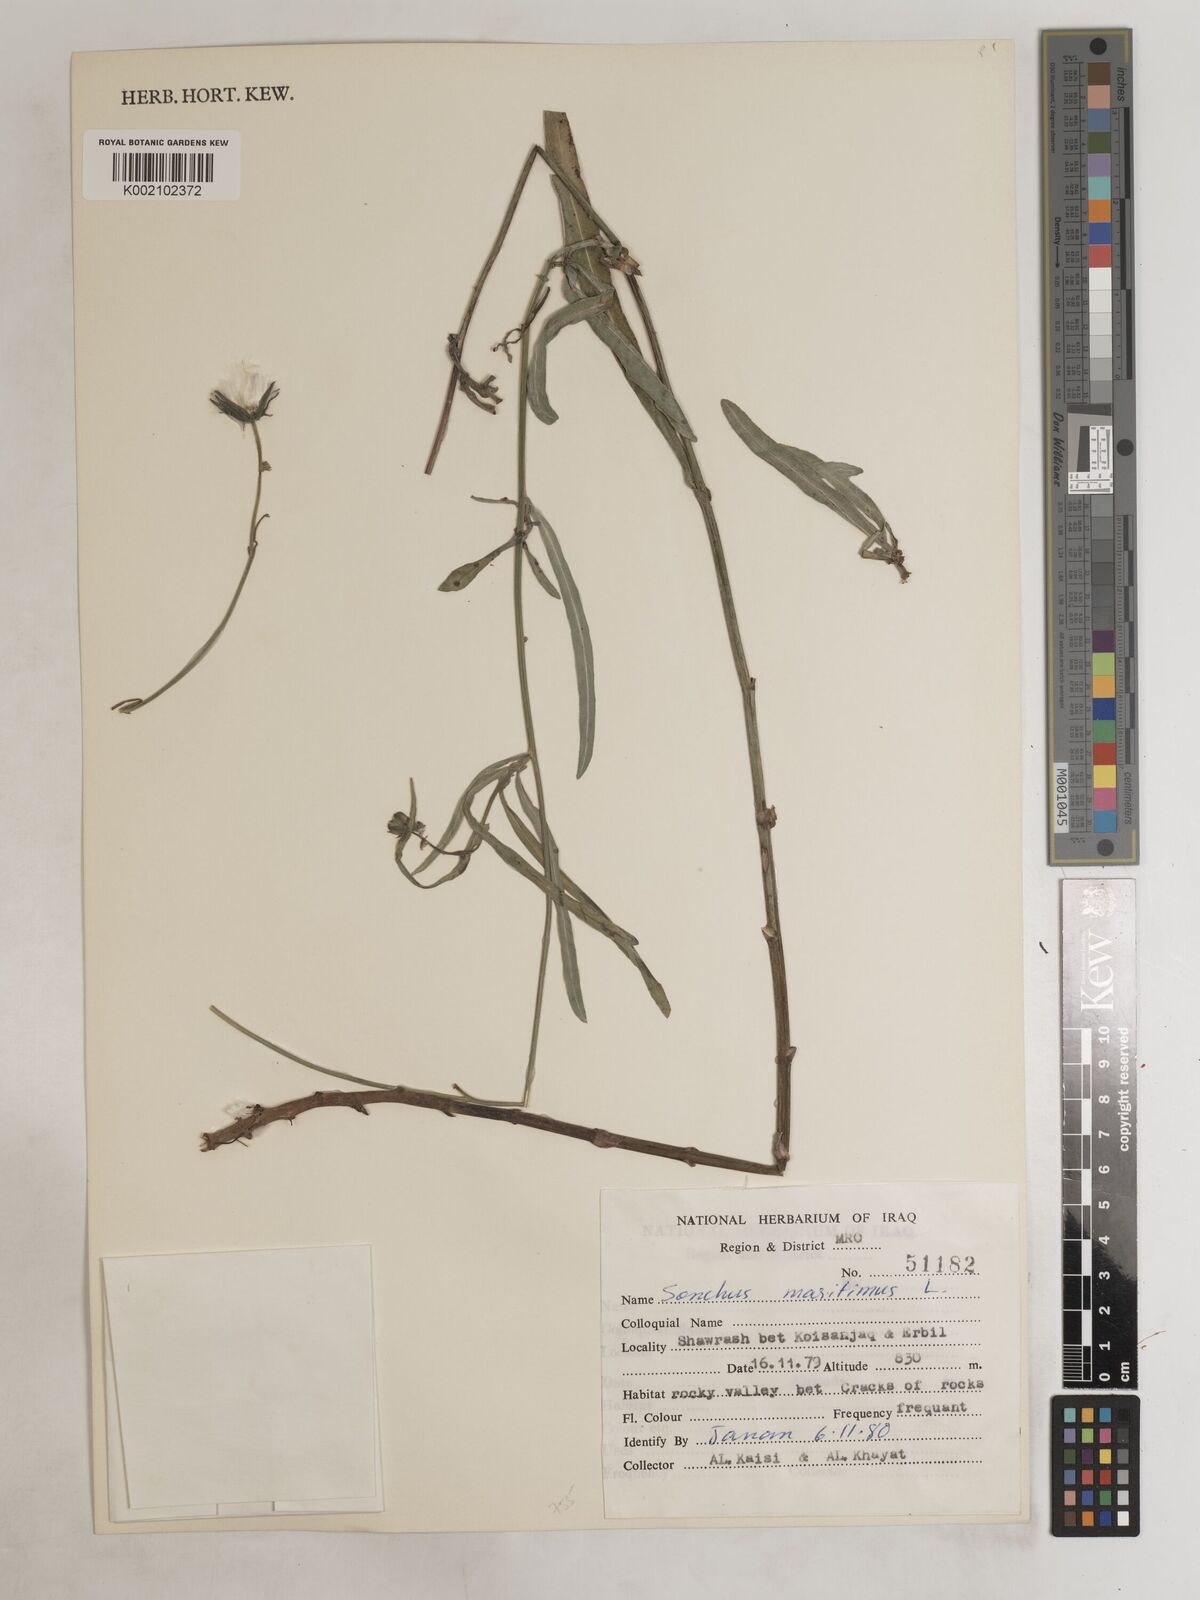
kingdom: Plantae
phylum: Tracheophyta
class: Magnoliopsida
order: Asterales
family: Asteraceae
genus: Sonchus
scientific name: Sonchus maritimus
